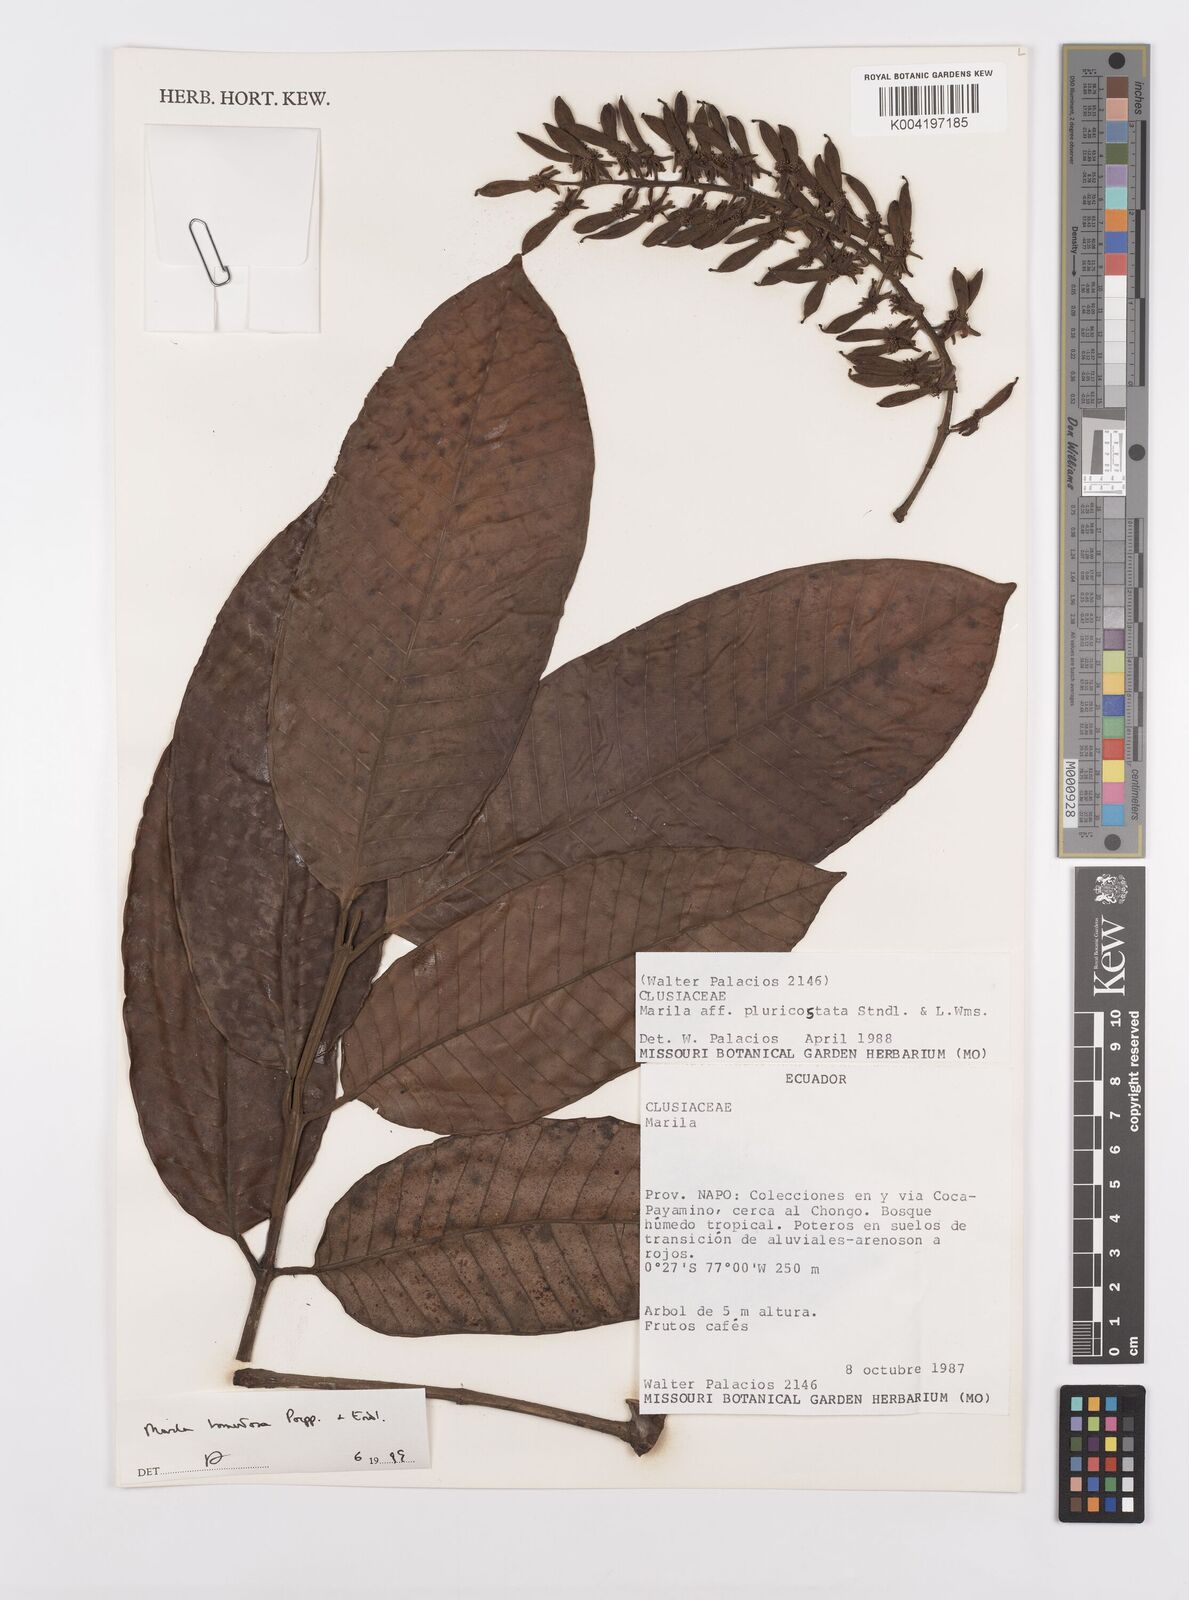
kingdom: Plantae
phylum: Tracheophyta
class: Magnoliopsida
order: Malpighiales
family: Calophyllaceae
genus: Marila
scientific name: Marila tomentosa
